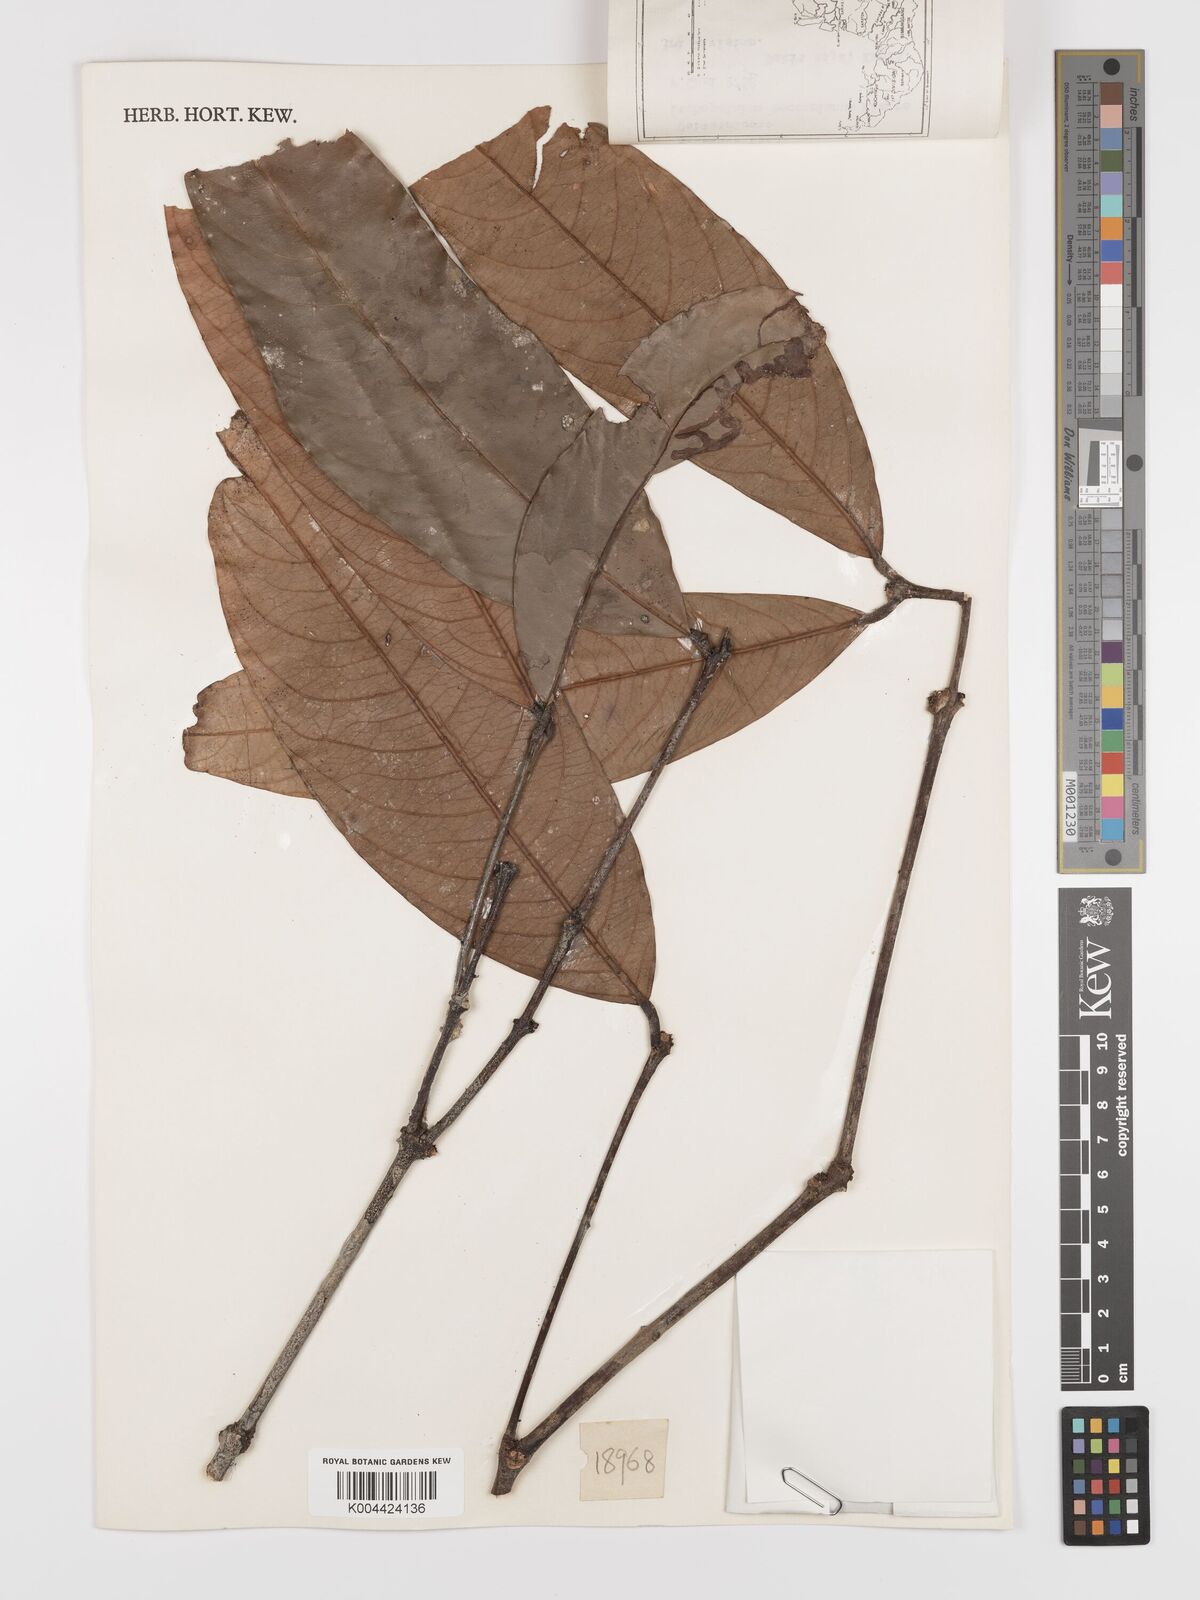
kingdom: Plantae
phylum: Tracheophyta
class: Magnoliopsida
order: Celastrales
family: Celastraceae
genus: Lophopetalum
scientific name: Lophopetalum beccarianum
